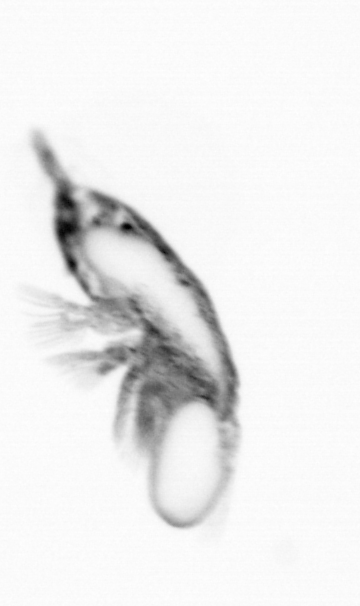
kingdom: Animalia
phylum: Arthropoda
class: Copepoda
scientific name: Copepoda
